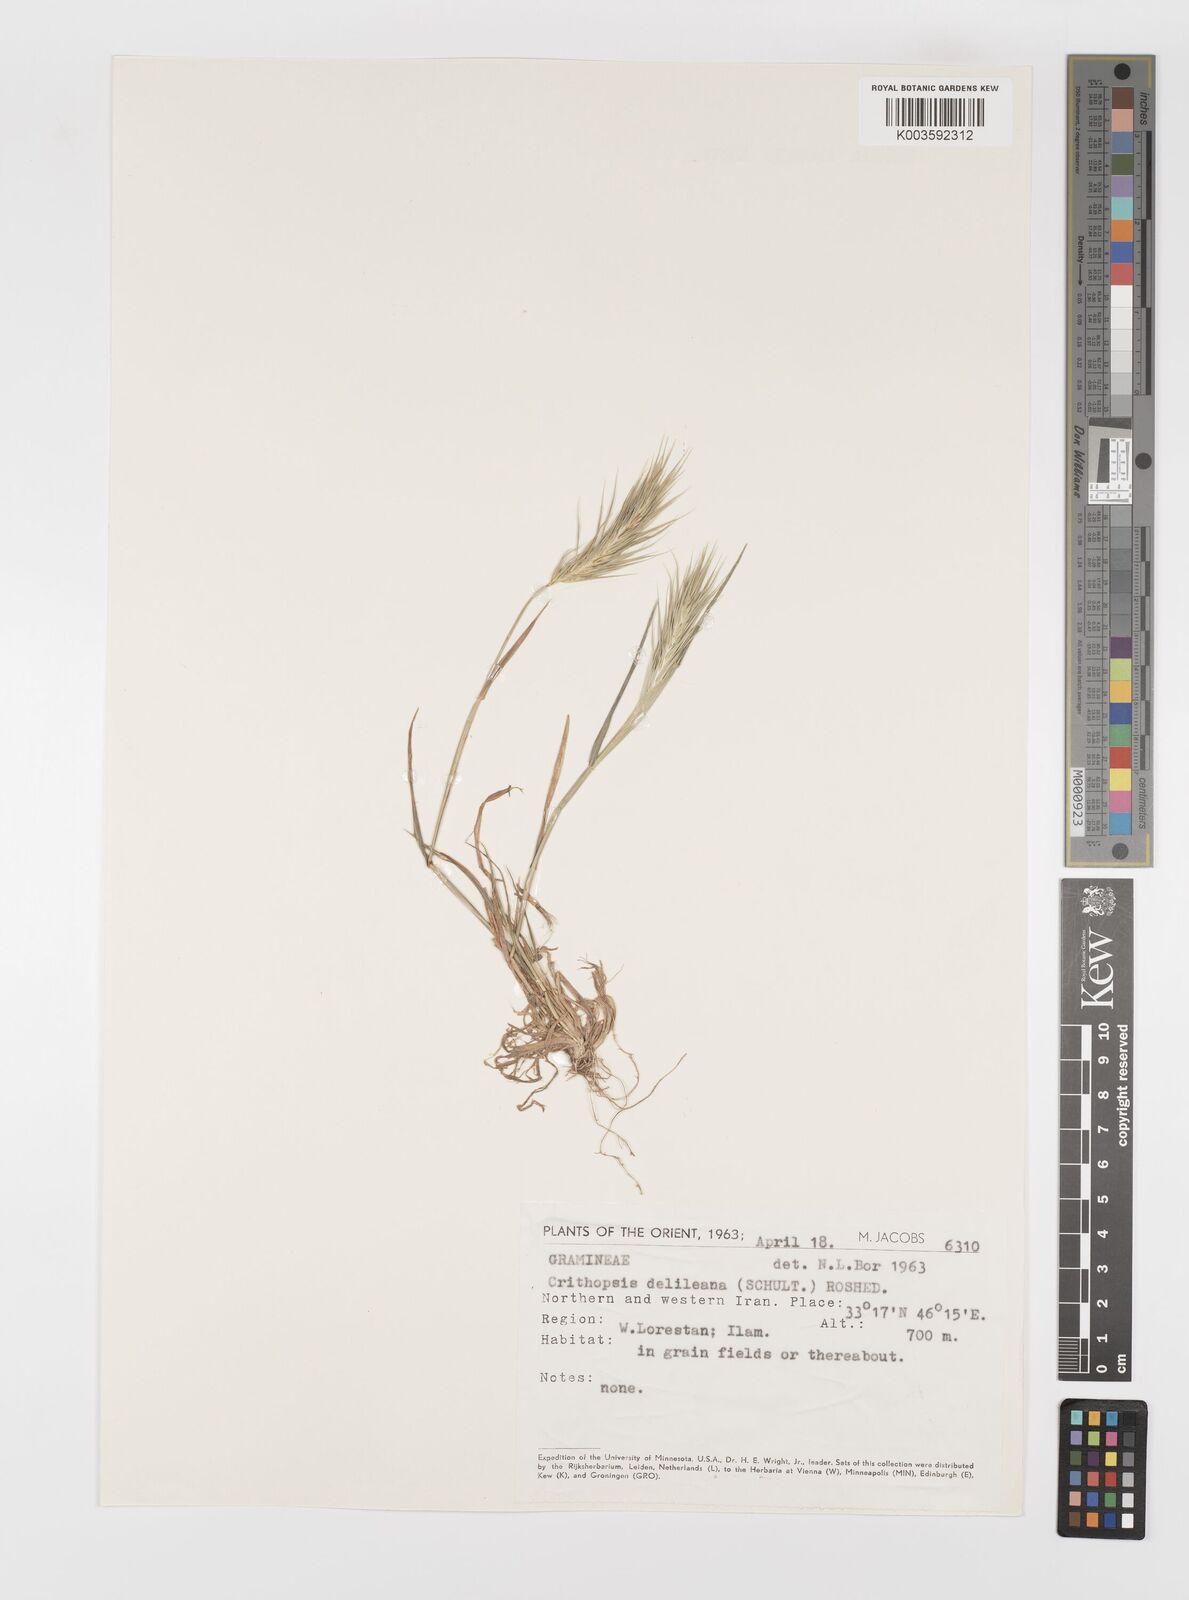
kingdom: Plantae
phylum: Tracheophyta
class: Liliopsida
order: Poales
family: Poaceae
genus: Crithopsis
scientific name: Crithopsis delileana
